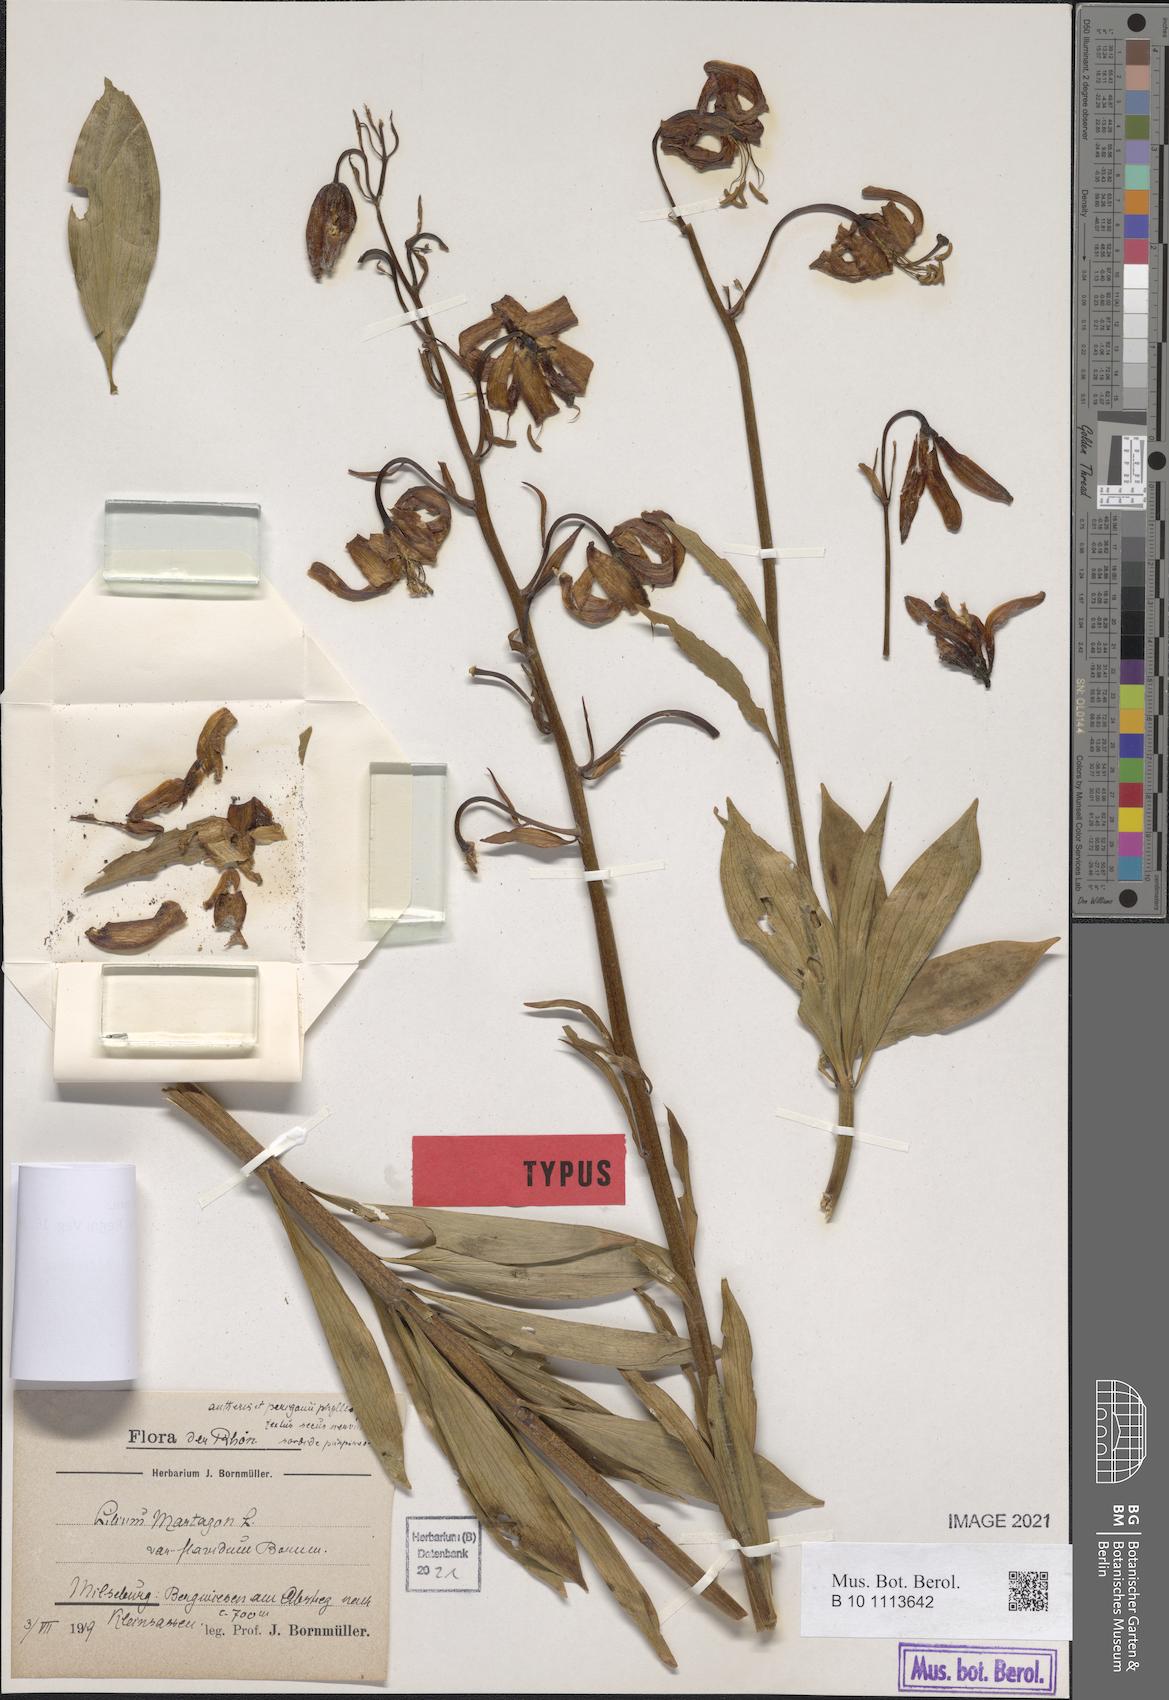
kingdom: Plantae
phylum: Tracheophyta
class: Liliopsida
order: Liliales
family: Liliaceae
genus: Lilium
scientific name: Lilium martagon
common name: Martagon lily
